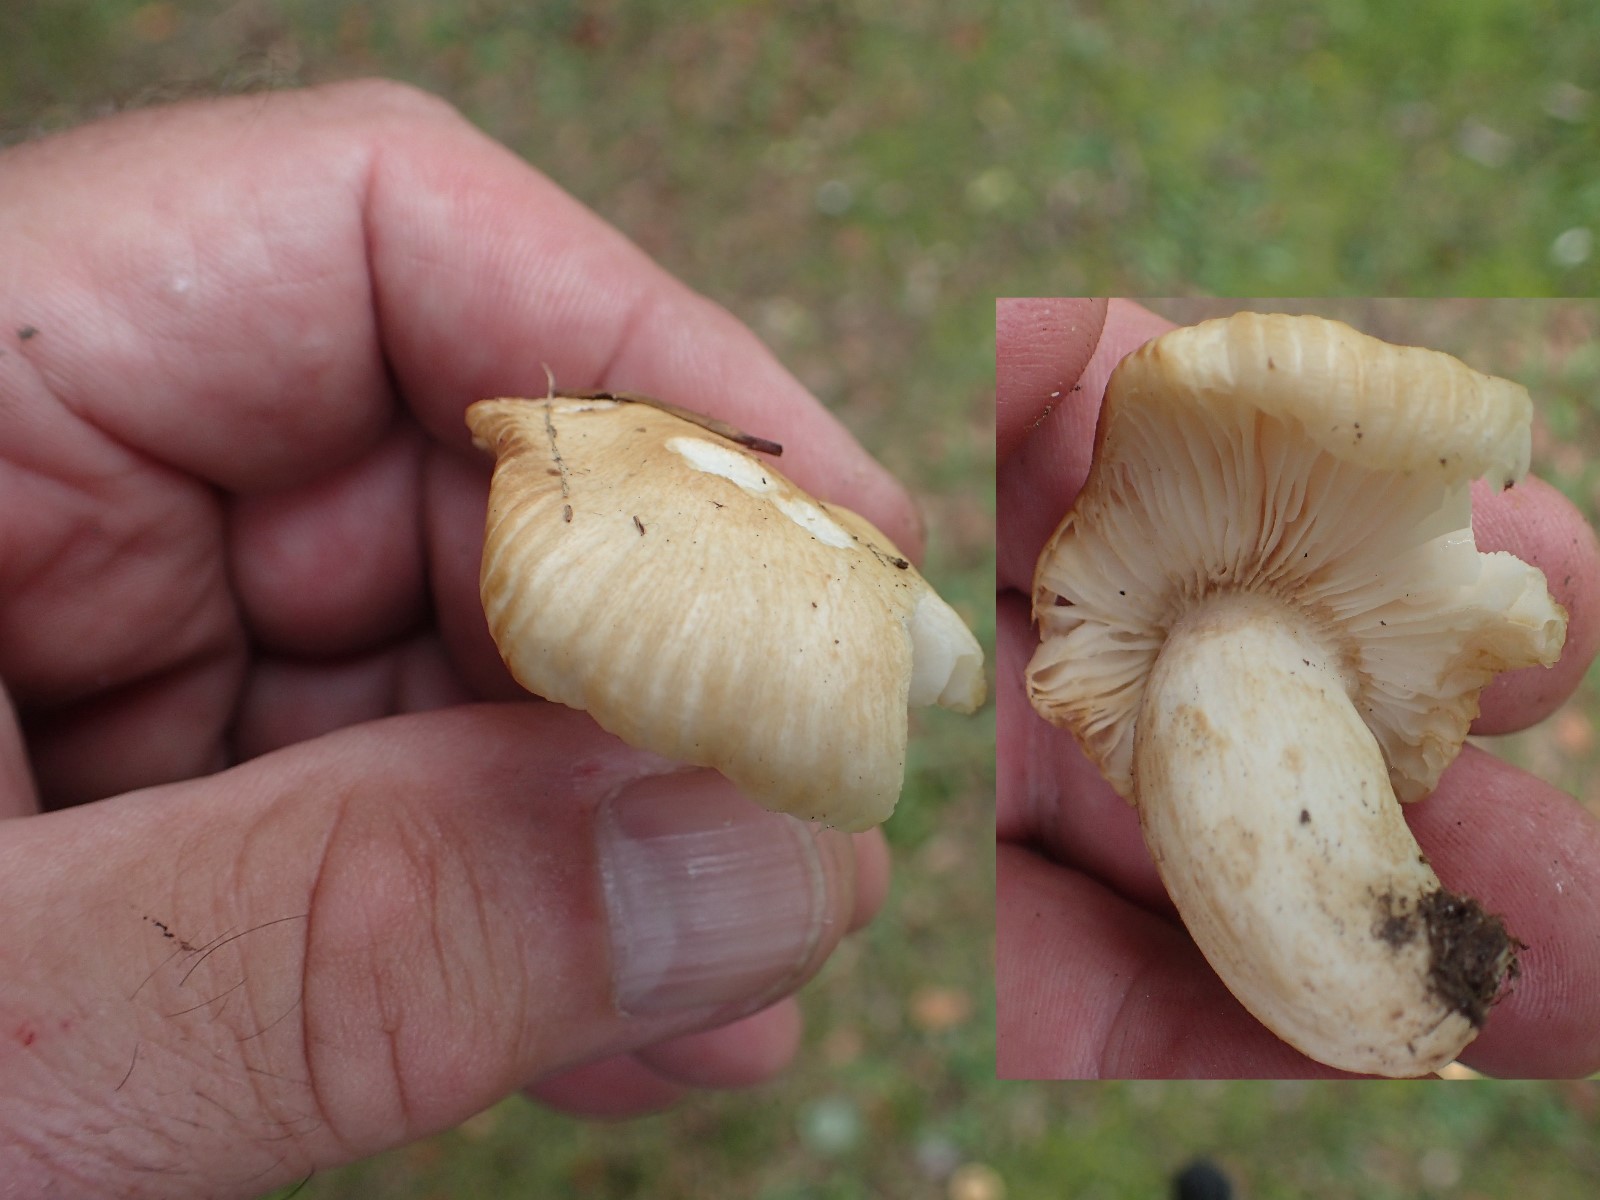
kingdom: Fungi
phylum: Basidiomycota
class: Agaricomycetes
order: Russulales
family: Russulaceae
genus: Russula
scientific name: Russula fellea
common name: galde-skørhat
